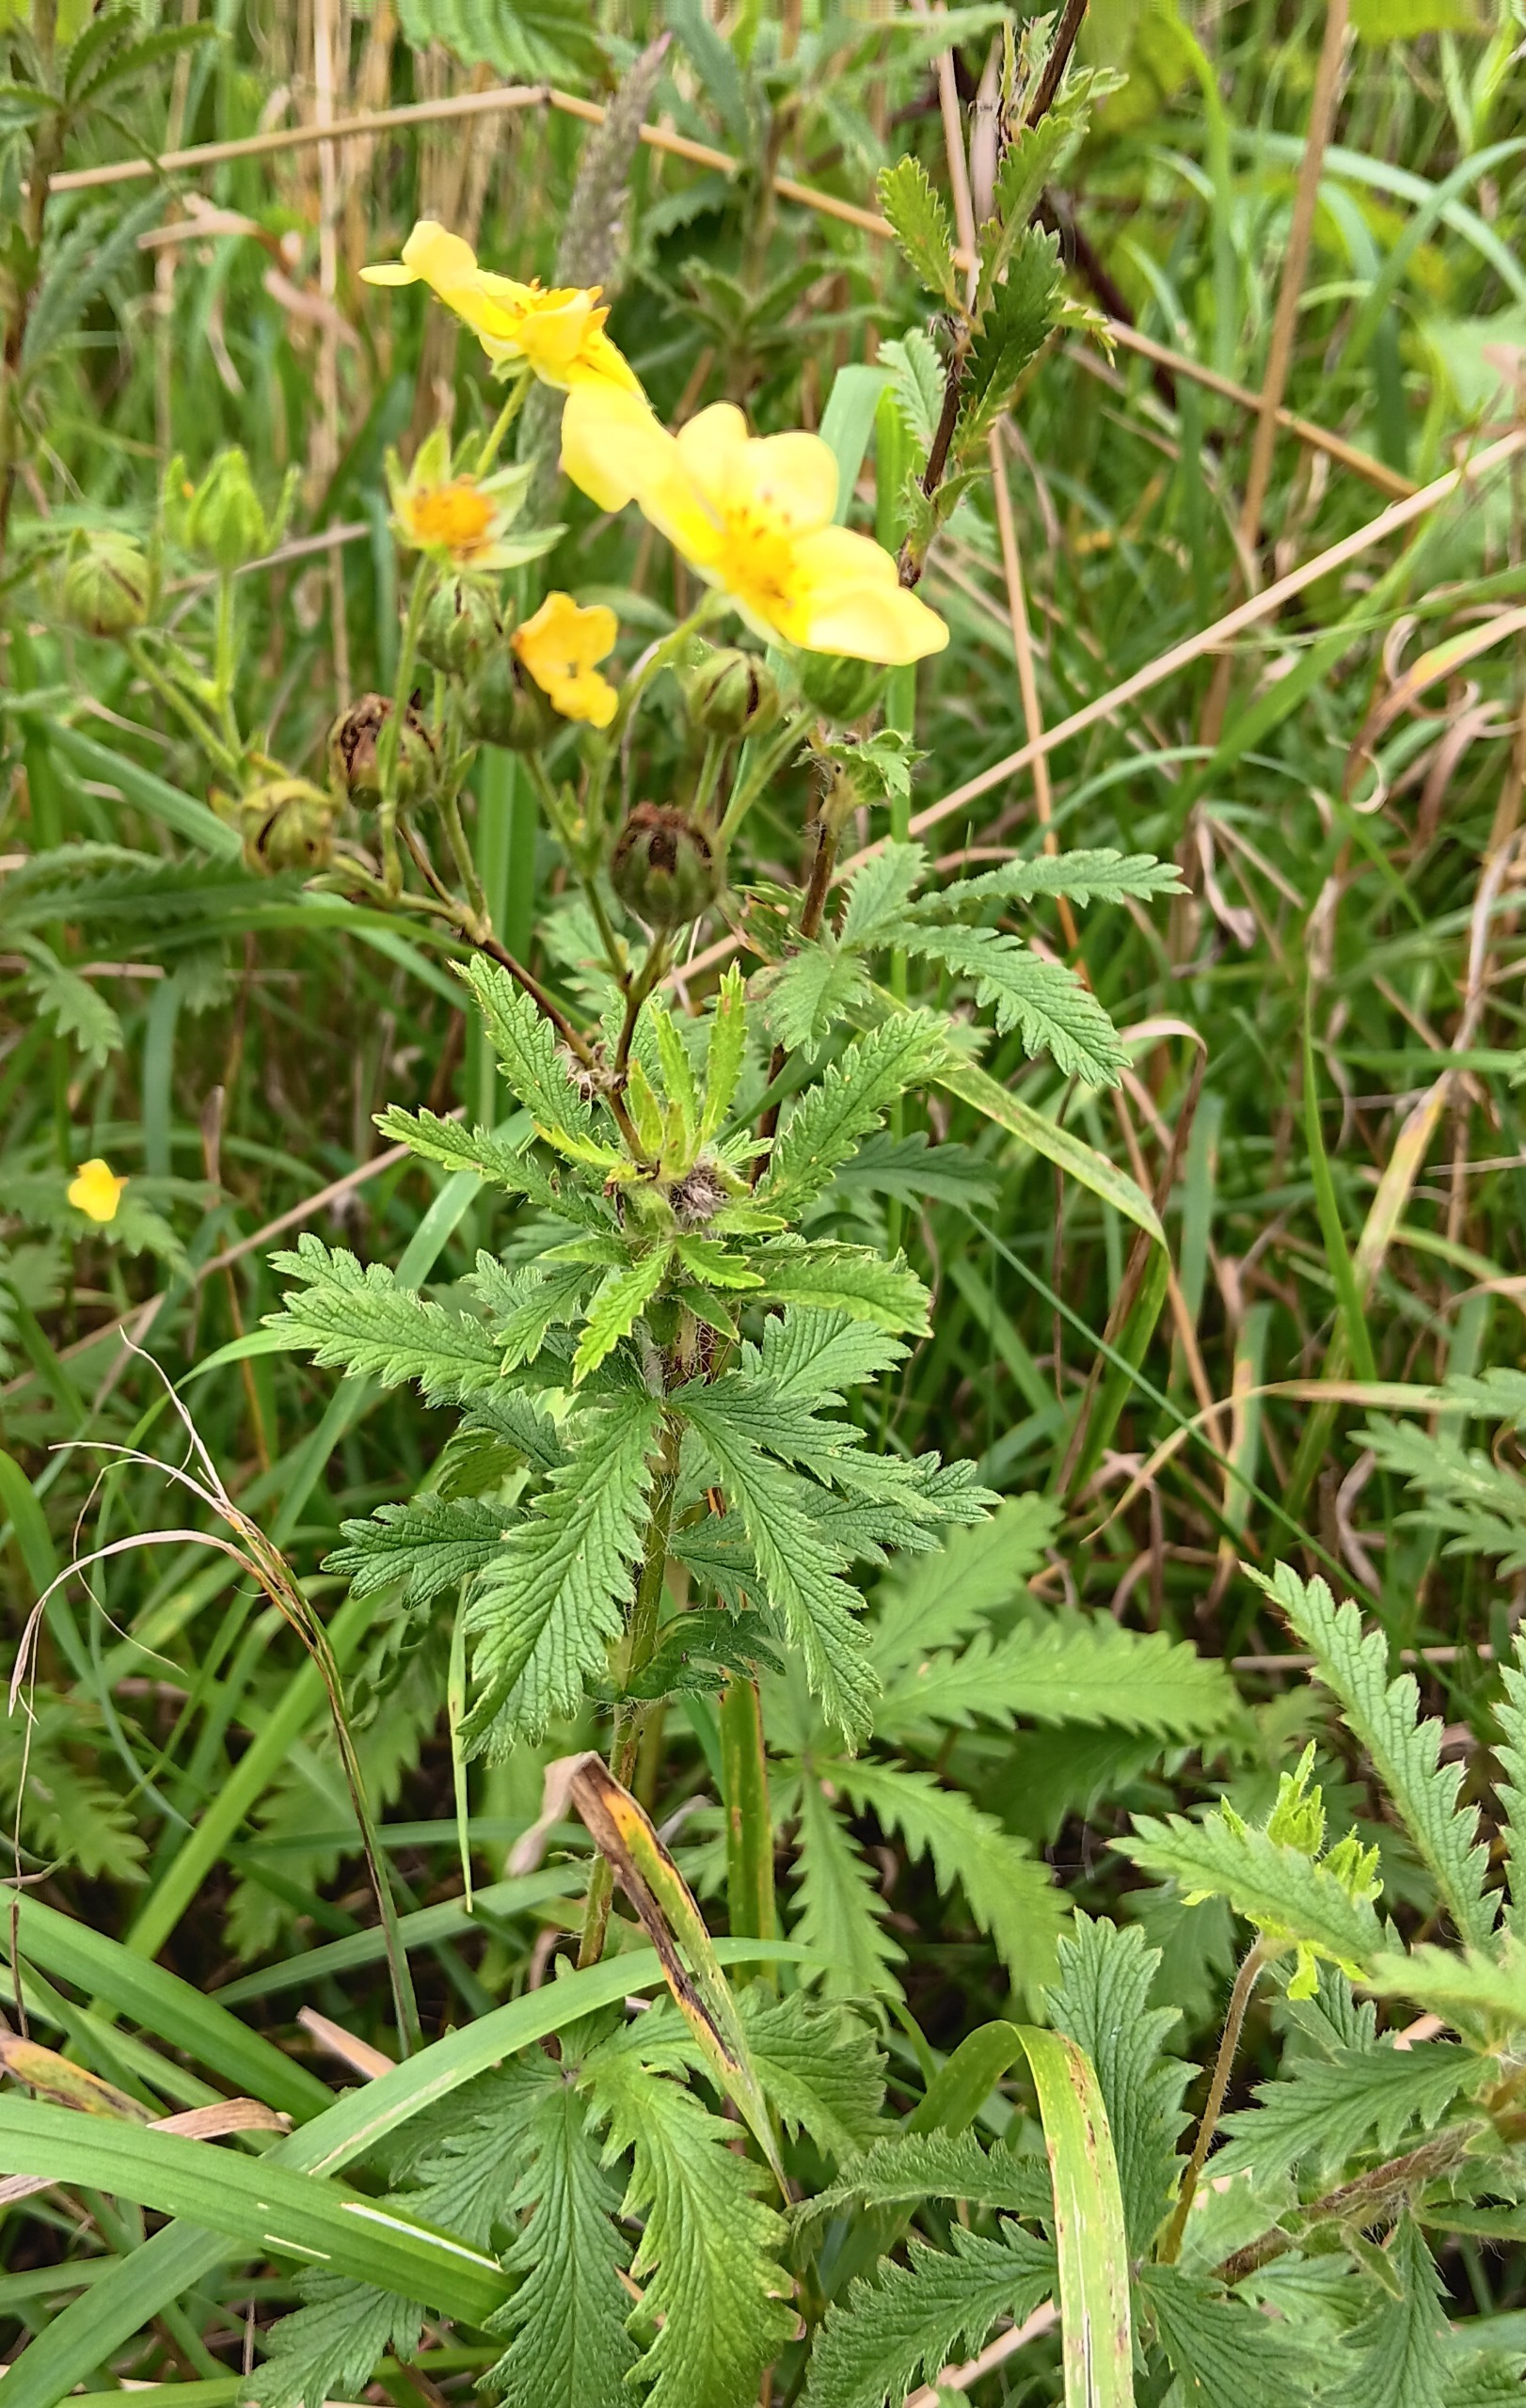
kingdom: Plantae
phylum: Tracheophyta
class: Magnoliopsida
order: Rosales
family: Rosaceae
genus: Potentilla
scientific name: Potentilla recta
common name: Rank potentil
